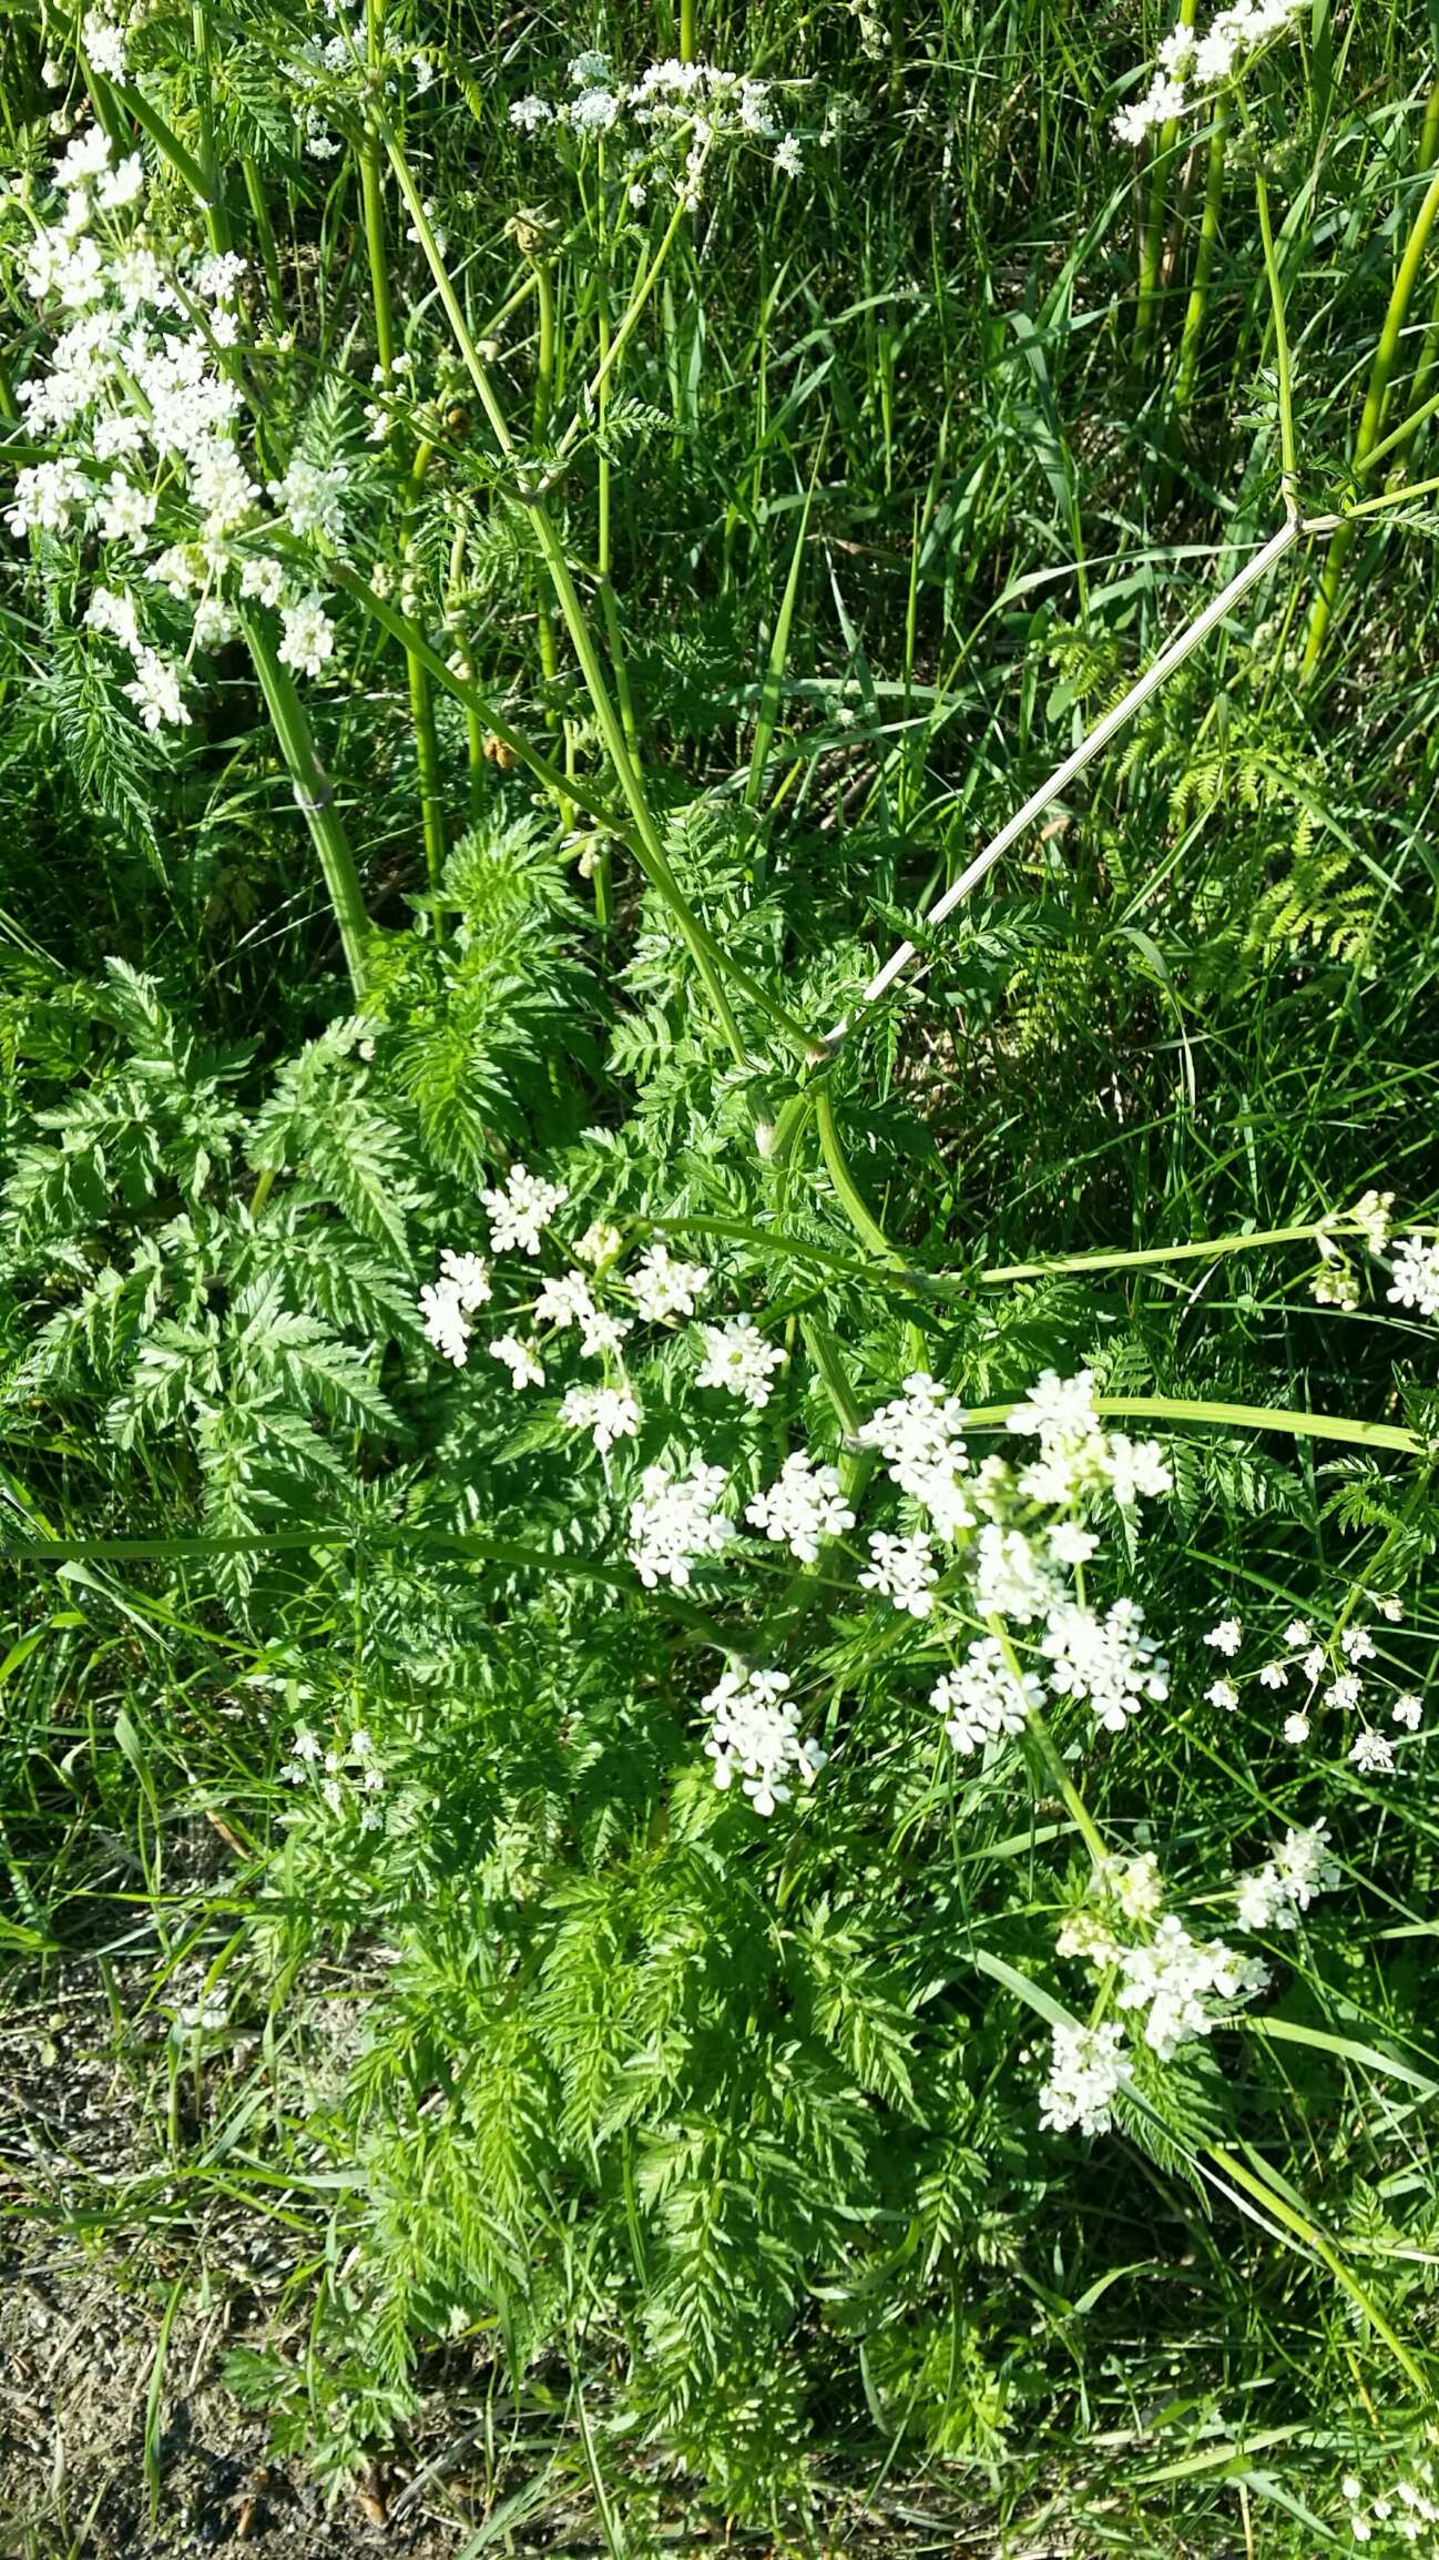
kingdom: Plantae
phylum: Tracheophyta
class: Magnoliopsida
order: Apiales
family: Apiaceae
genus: Anthriscus
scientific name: Anthriscus sylvestris
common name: Vild kørvel
